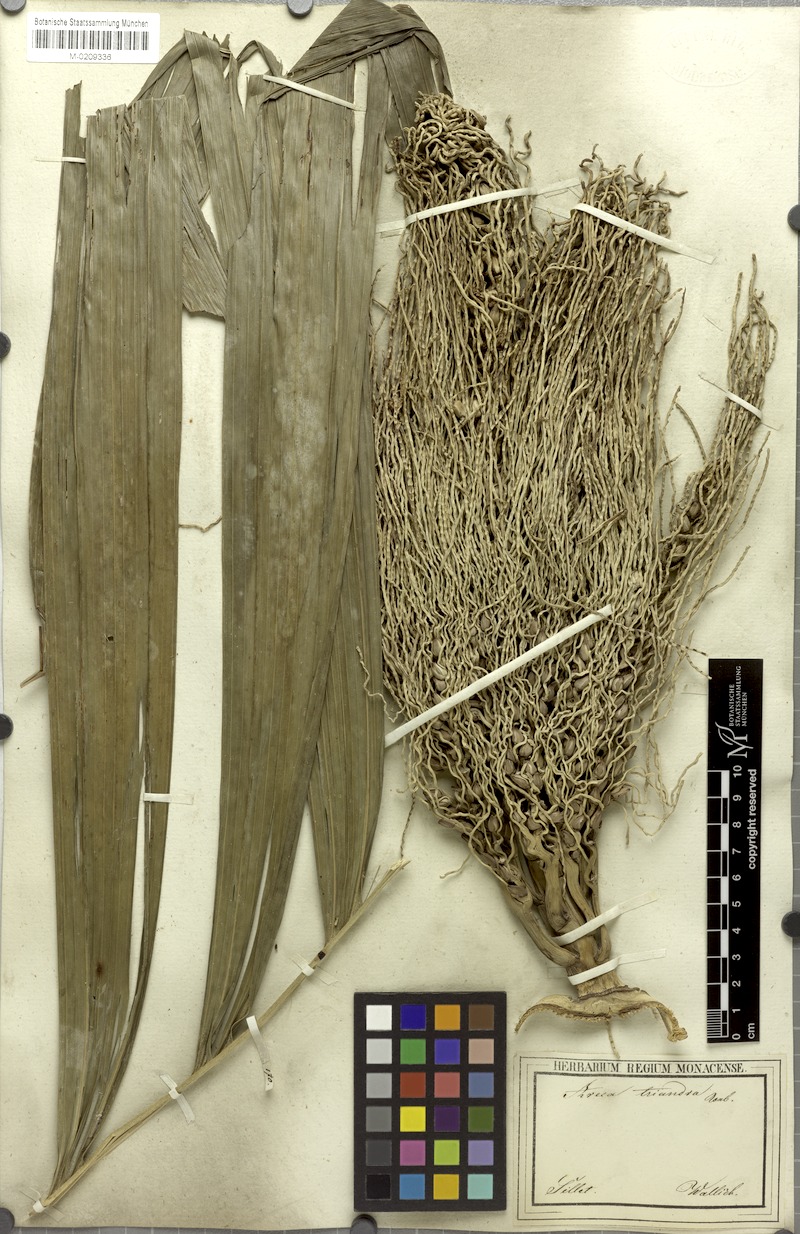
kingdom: Plantae
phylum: Tracheophyta
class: Liliopsida
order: Arecales
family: Arecaceae
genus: Areca
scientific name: Areca triandra
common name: Australian areca palm
